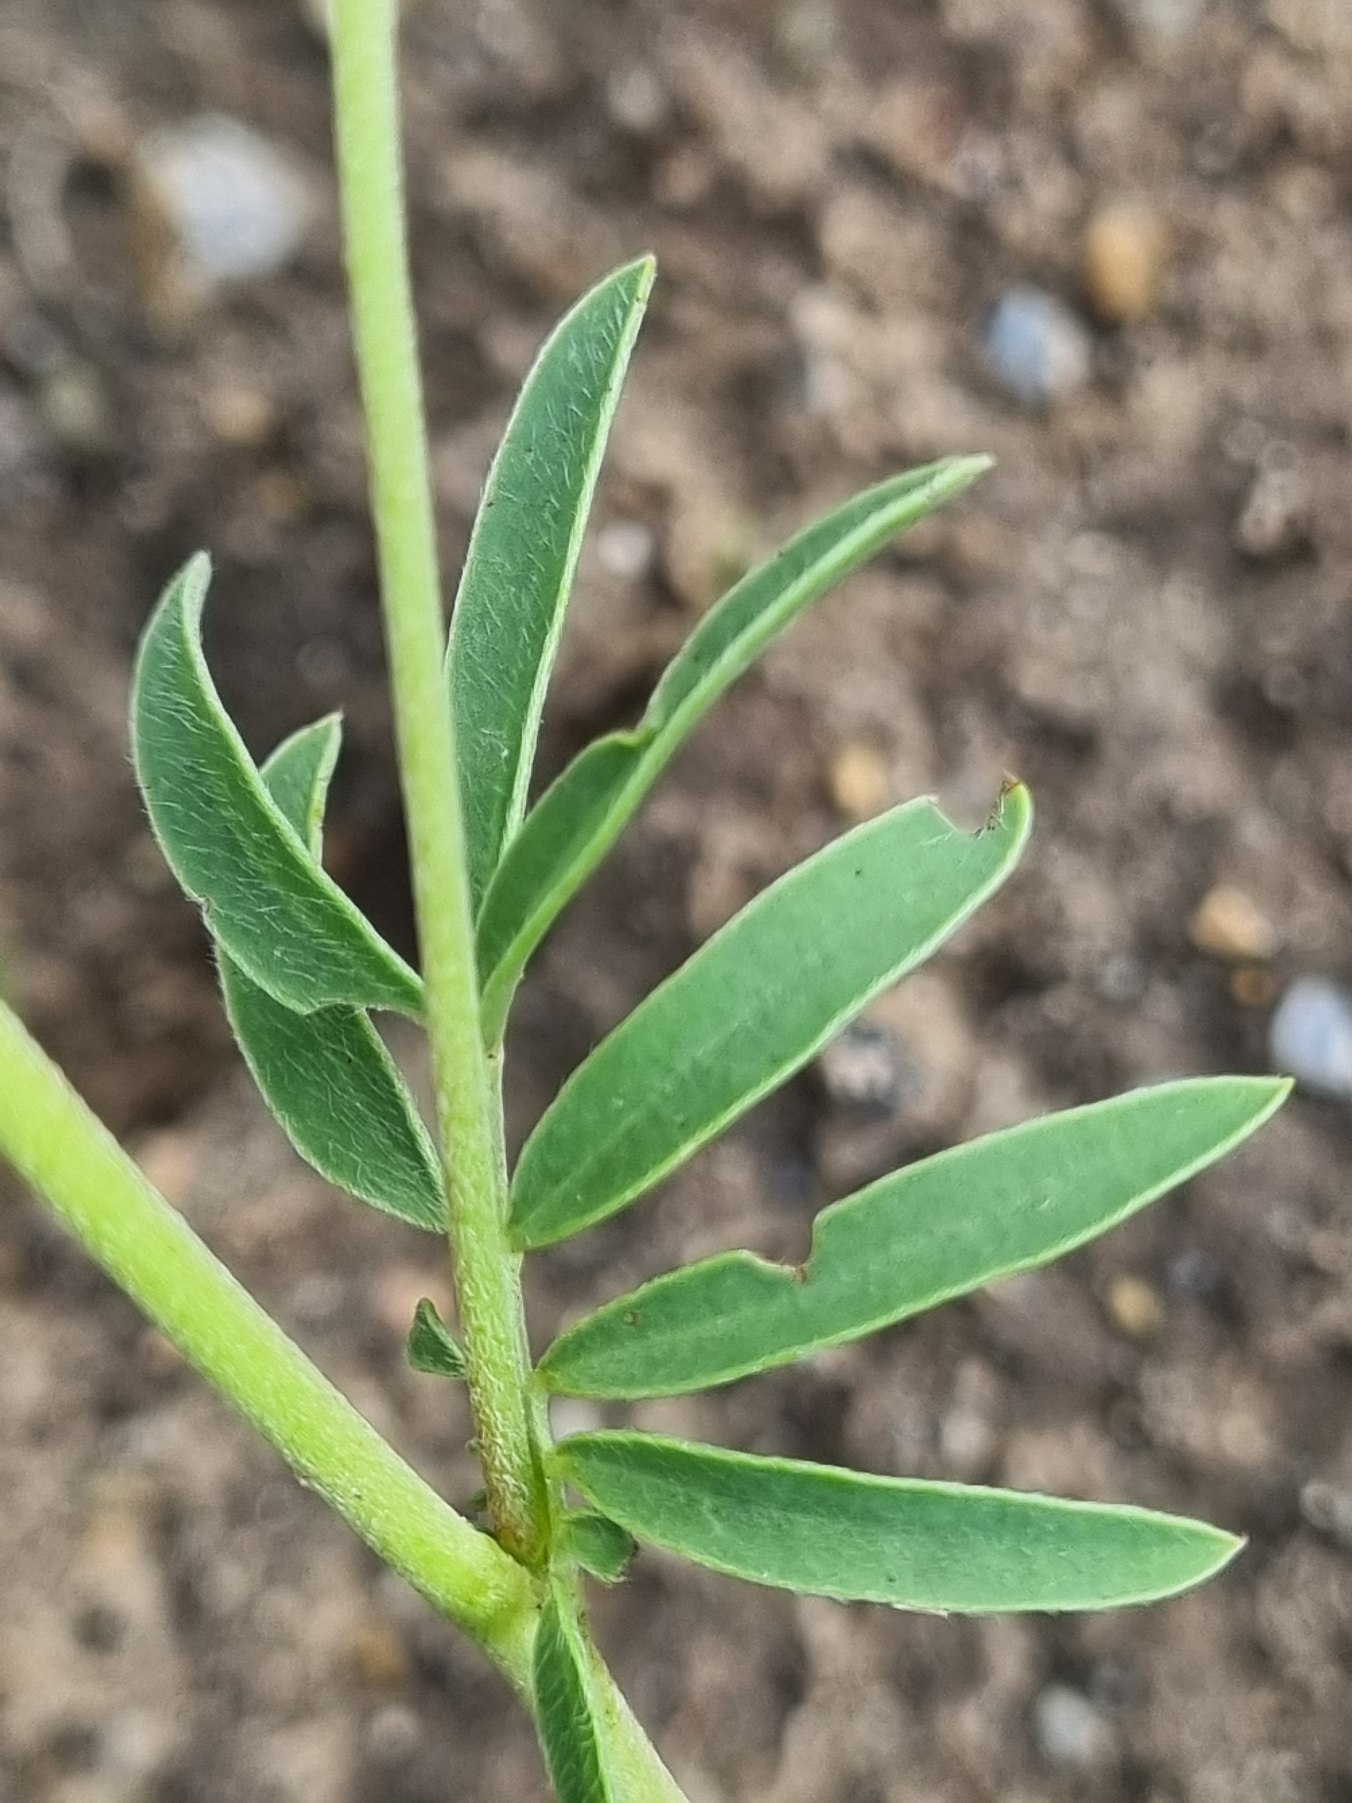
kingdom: Plantae
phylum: Tracheophyta
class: Magnoliopsida
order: Fabales
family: Fabaceae
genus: Anthyllis
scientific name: Anthyllis vulneraria
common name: Liden rundbælg
